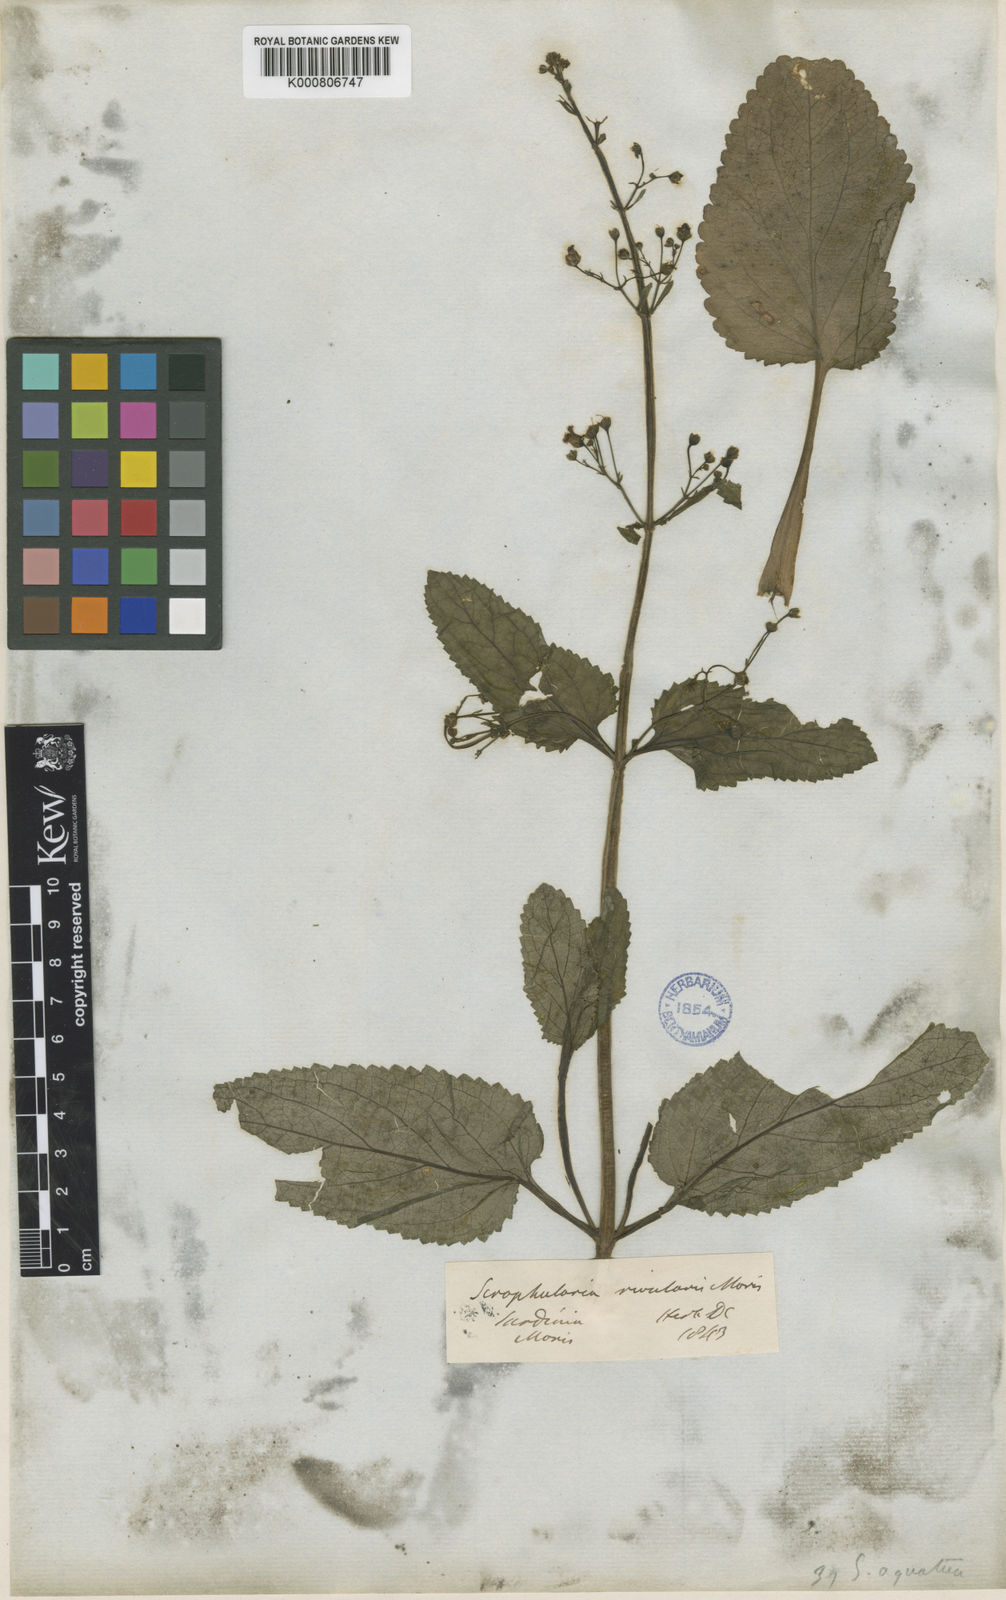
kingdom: Plantae
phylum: Tracheophyta
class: Magnoliopsida
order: Lamiales
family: Scrophulariaceae
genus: Scrophularia
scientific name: Scrophularia umbrosa
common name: Green figwort
